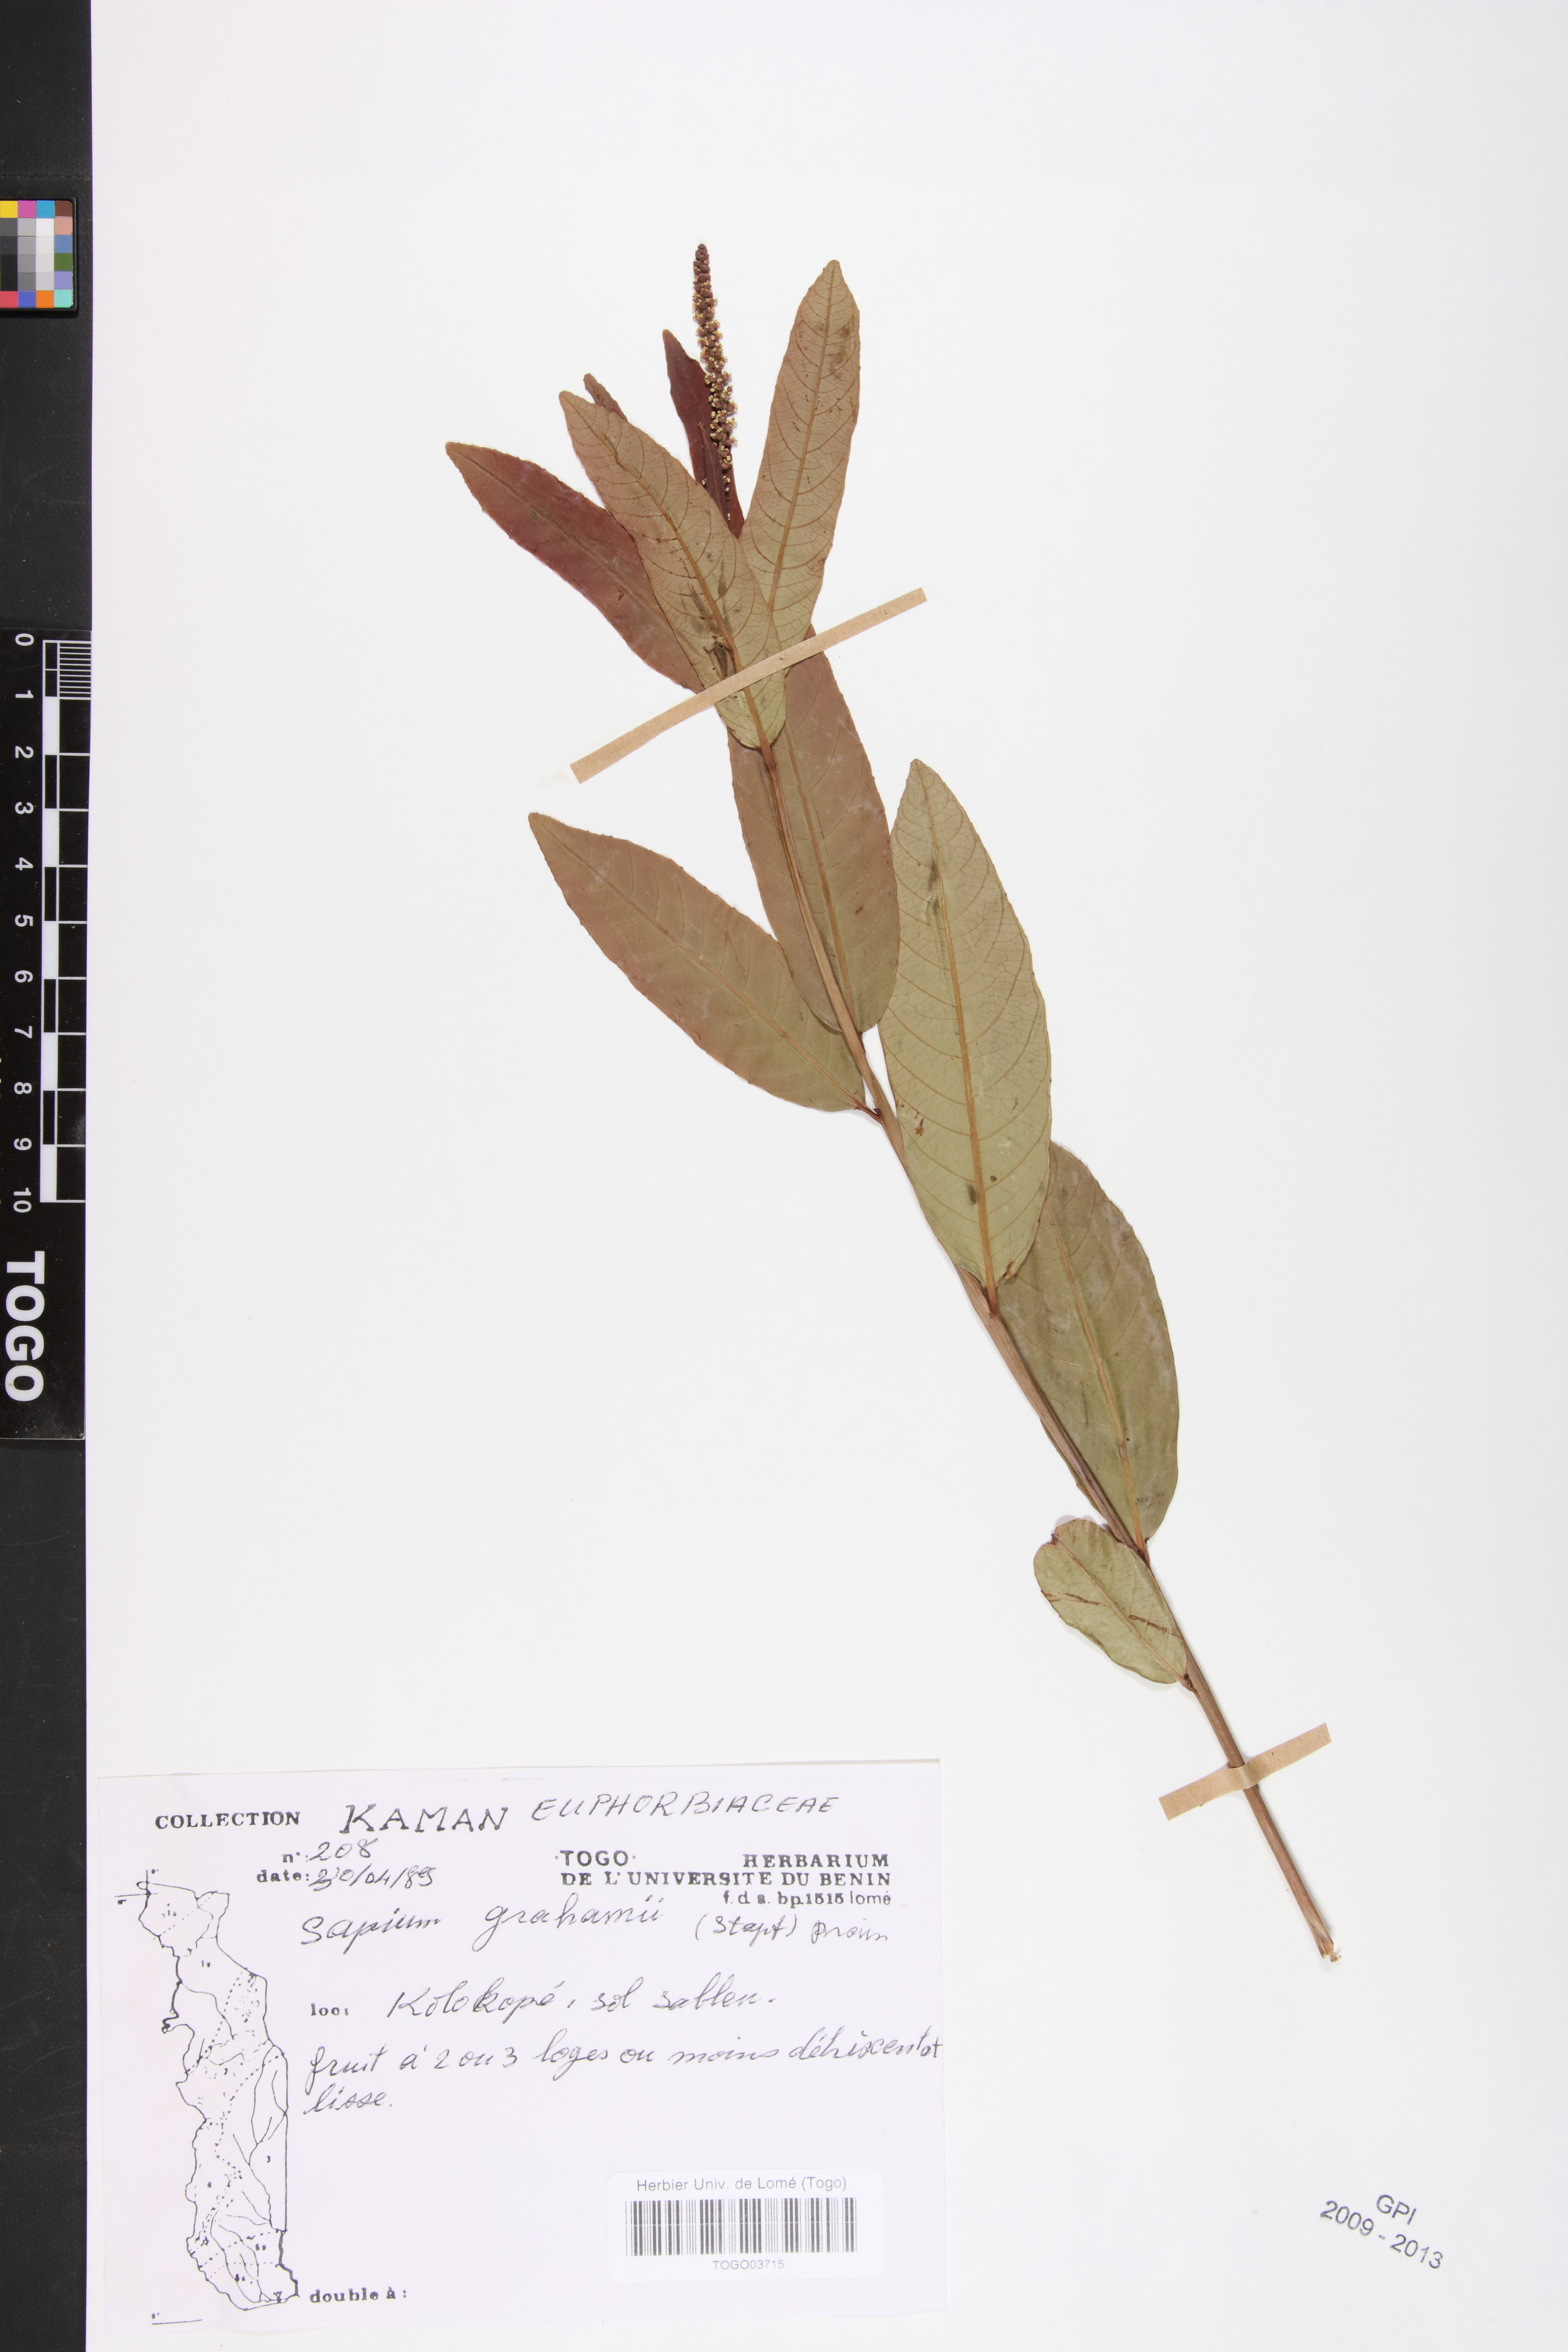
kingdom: Plantae
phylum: Tracheophyta
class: Magnoliopsida
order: Malpighiales
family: Euphorbiaceae
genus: Excoecaria
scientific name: Excoecaria grahamii
